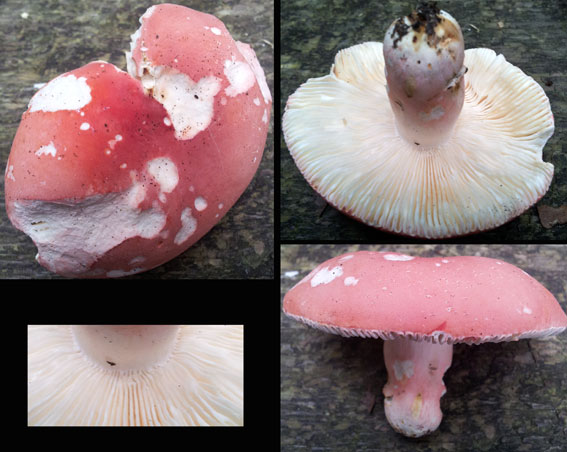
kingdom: Fungi
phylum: Basidiomycota
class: Agaricomycetes
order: Russulales
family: Russulaceae
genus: Russula
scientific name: Russula rosea
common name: fastkødet skørhat
